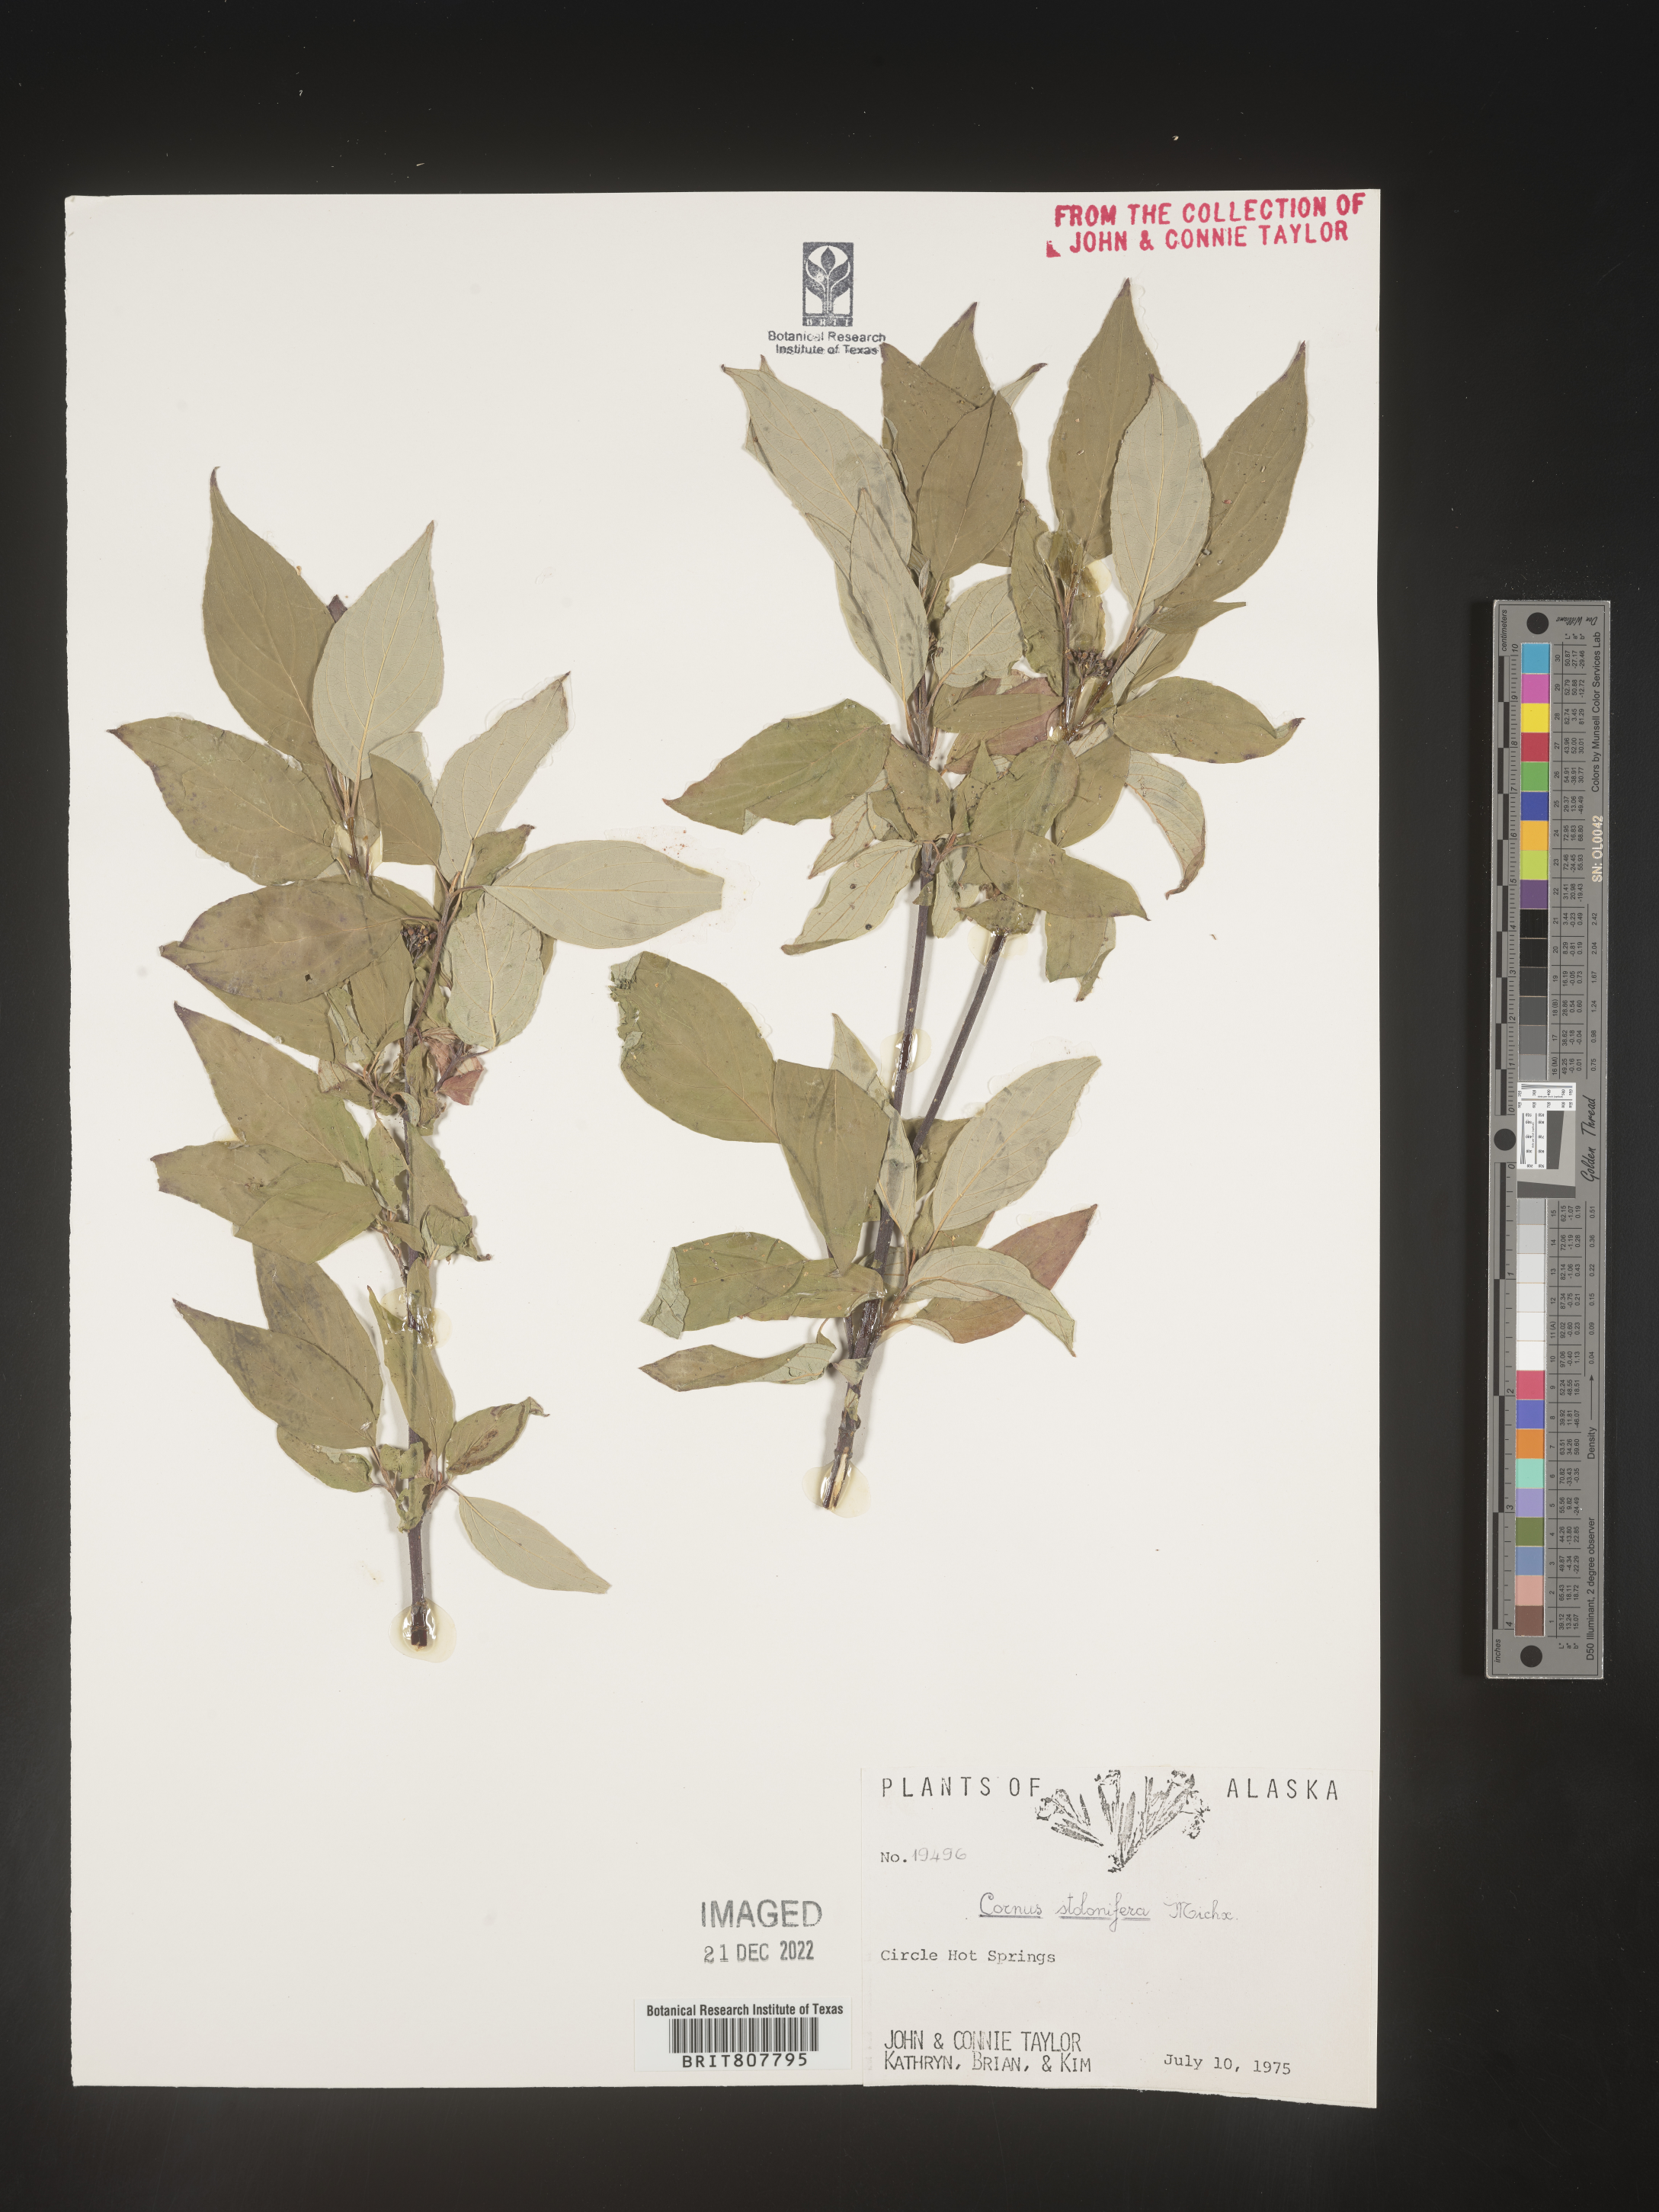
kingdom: Plantae
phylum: Tracheophyta
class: Magnoliopsida
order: Cornales
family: Cornaceae
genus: Cornus
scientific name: Cornus sericea
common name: Red-osier dogwood
